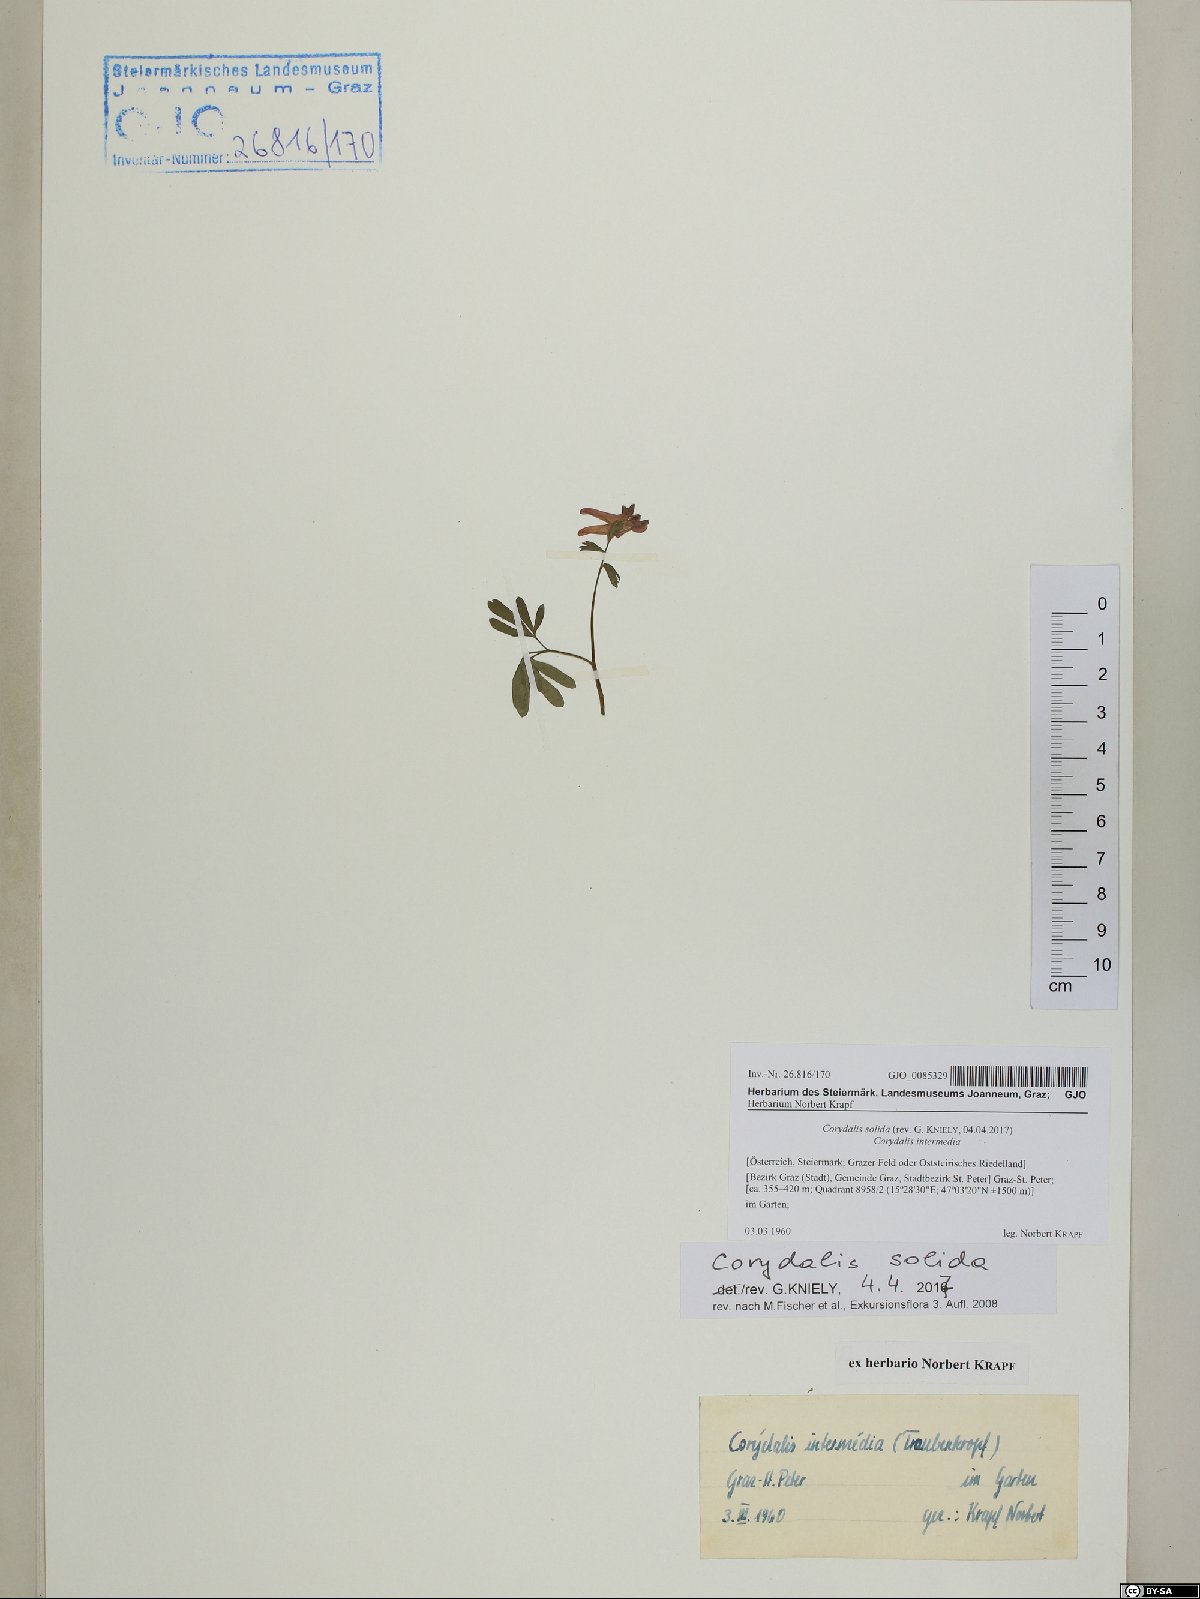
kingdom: Plantae
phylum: Tracheophyta
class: Magnoliopsida
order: Ranunculales
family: Papaveraceae
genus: Corydalis
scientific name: Corydalis solida
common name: Bird-in-a-bush
